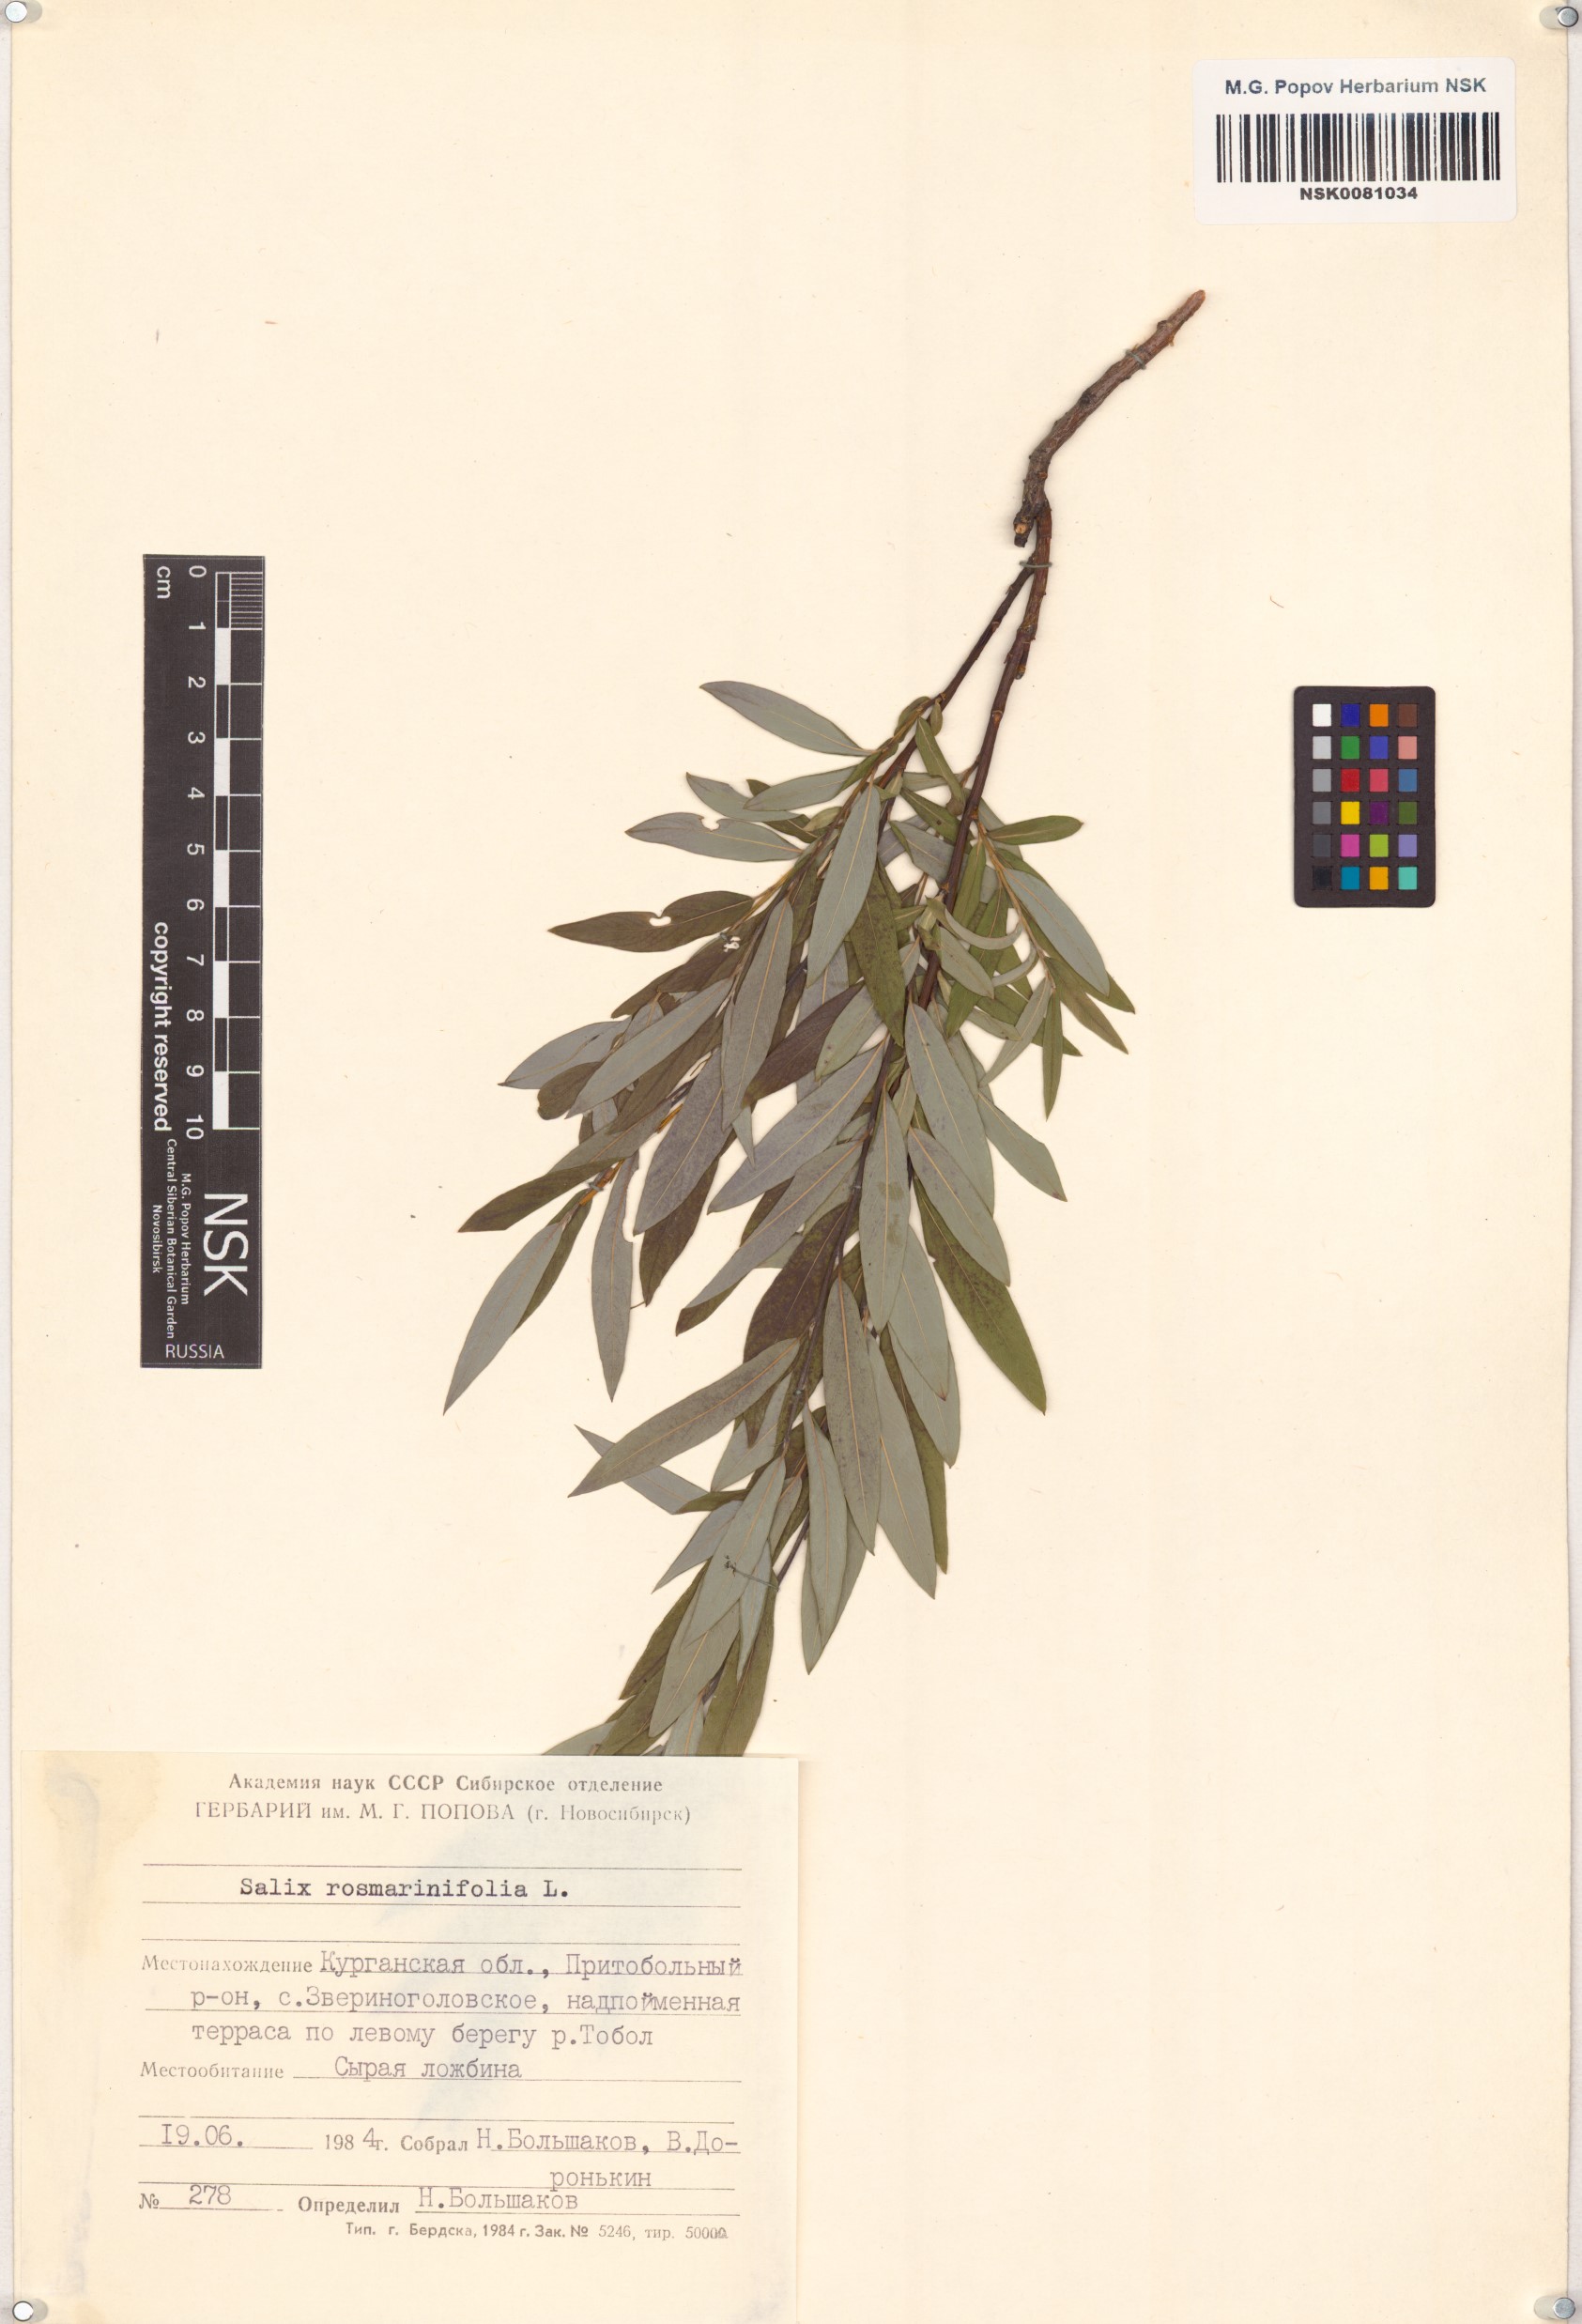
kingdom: Plantae
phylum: Tracheophyta
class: Magnoliopsida
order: Malpighiales
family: Salicaceae
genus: Salix
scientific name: Salix rosmarinifolia
